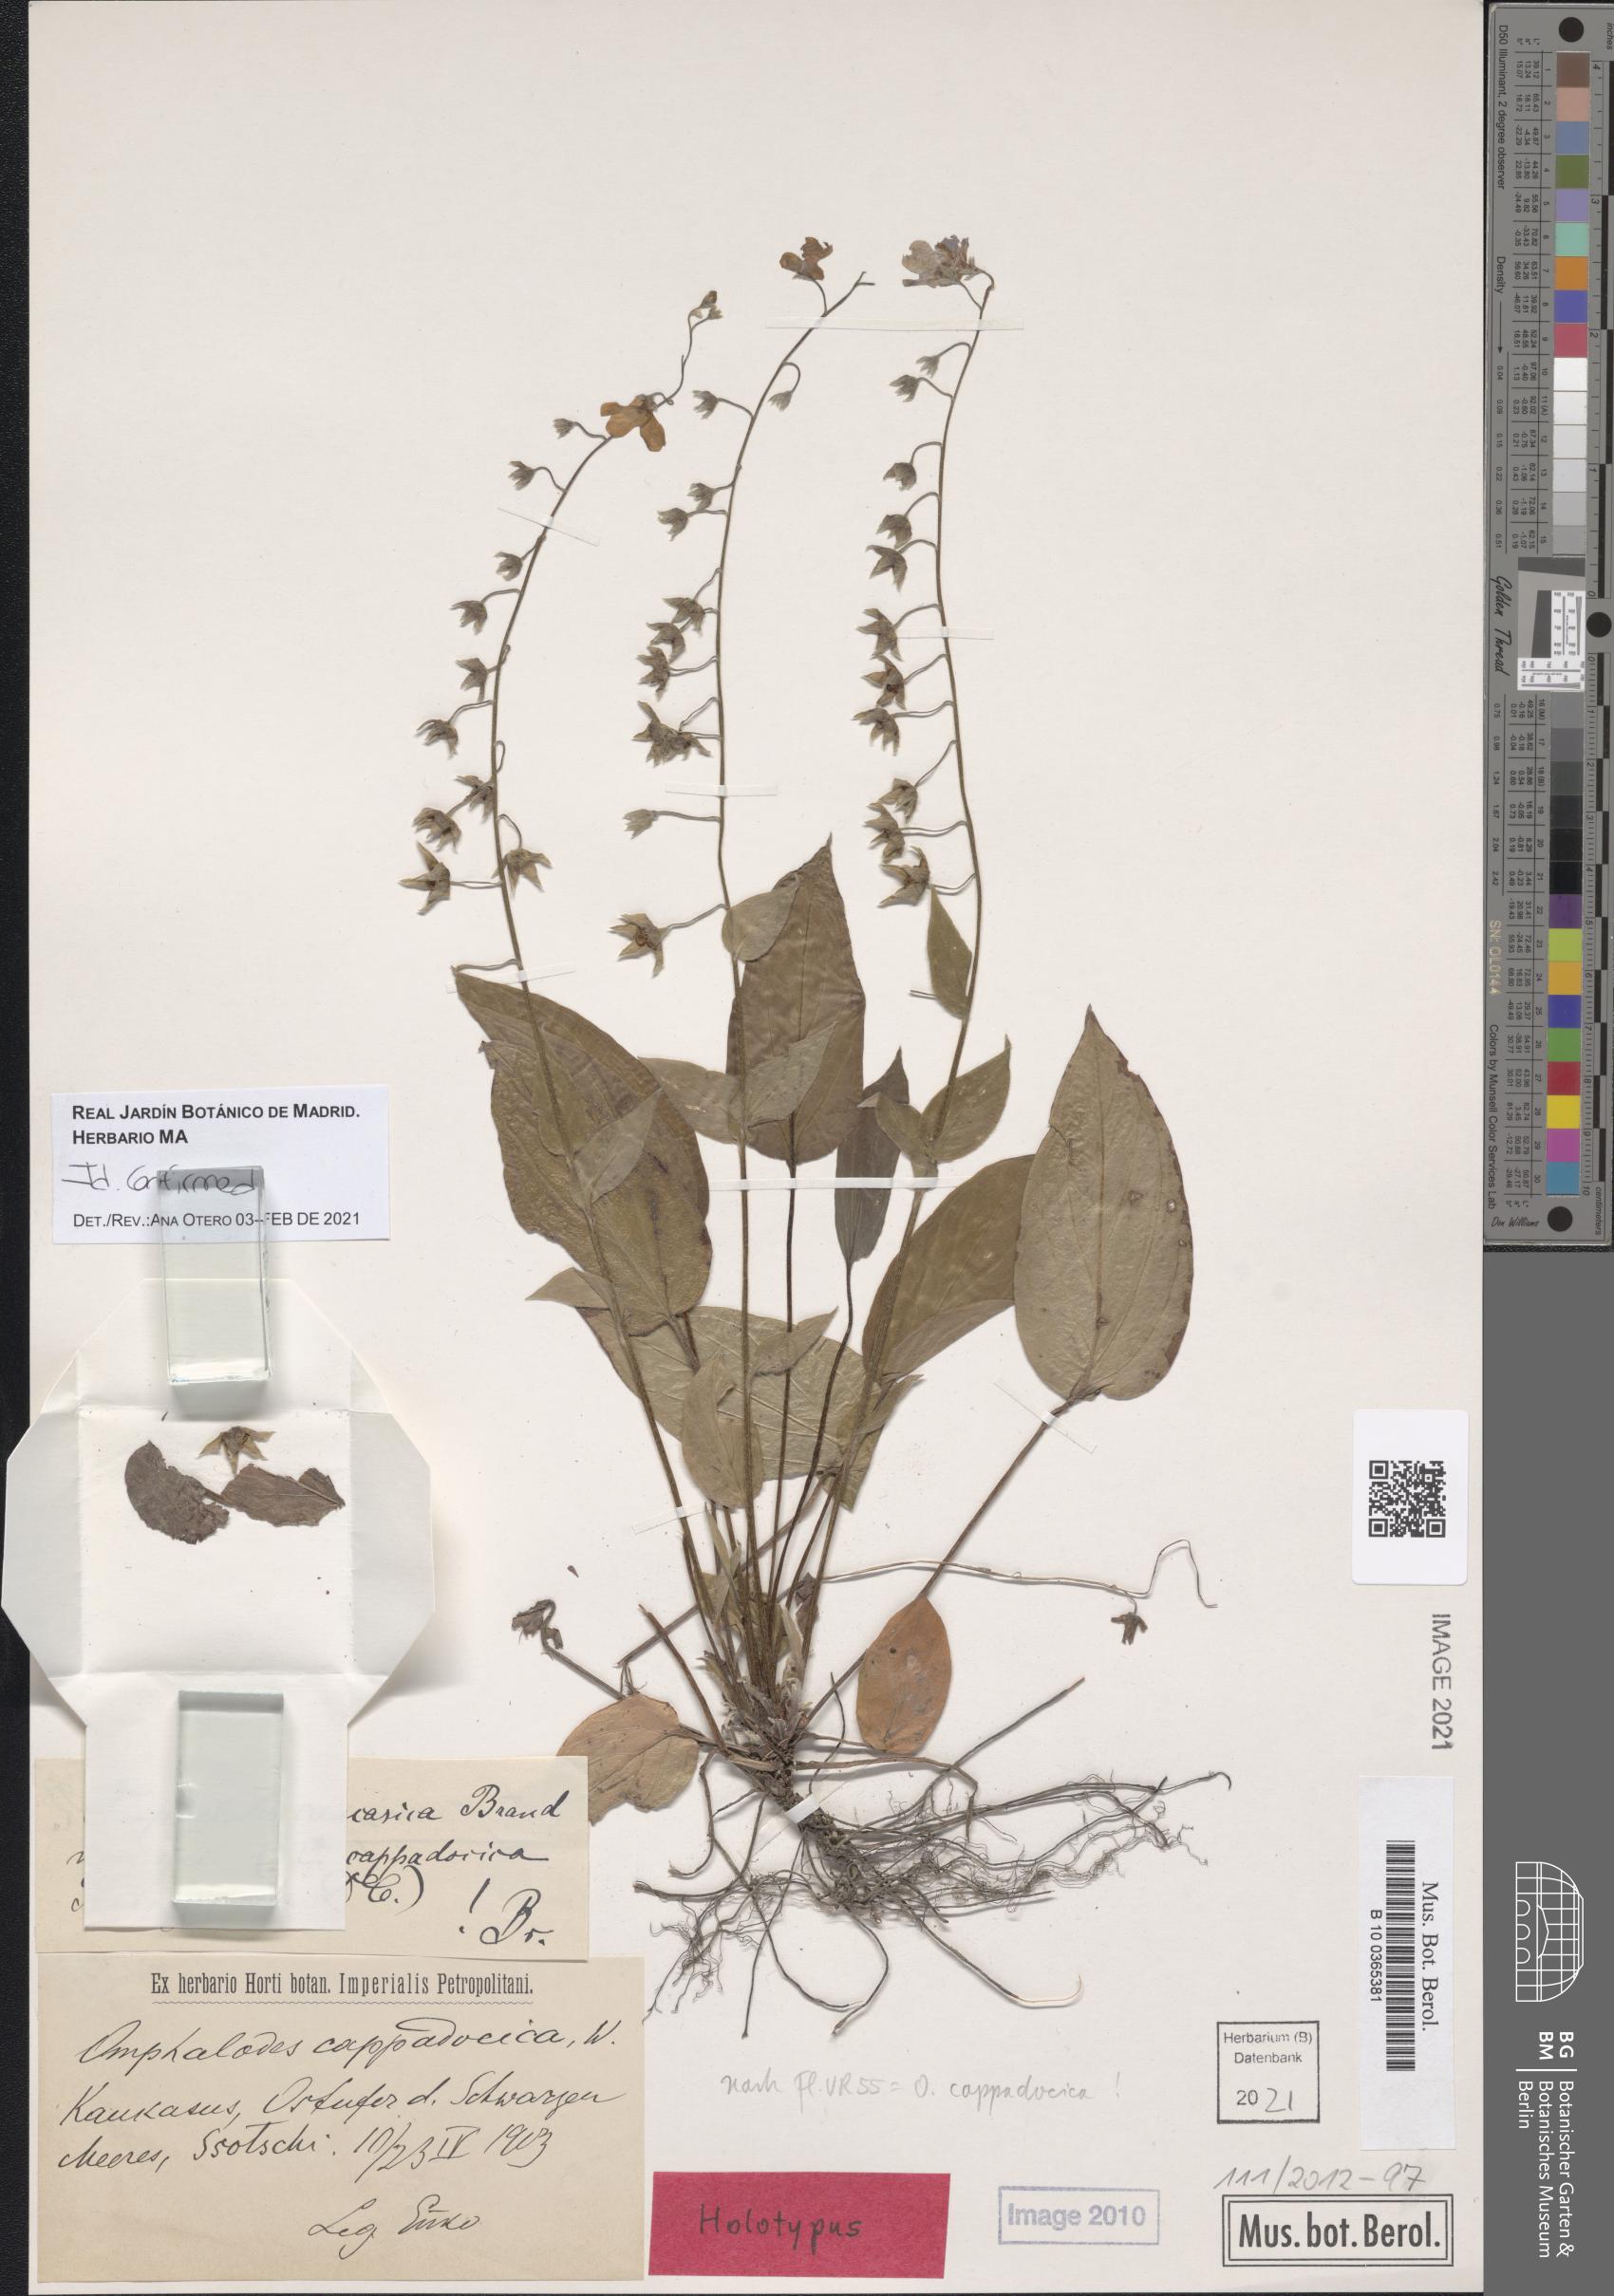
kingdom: Plantae
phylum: Tracheophyta
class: Magnoliopsida
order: Boraginales
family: Boraginaceae
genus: Omphalodes
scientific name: Omphalodes cappadocica
